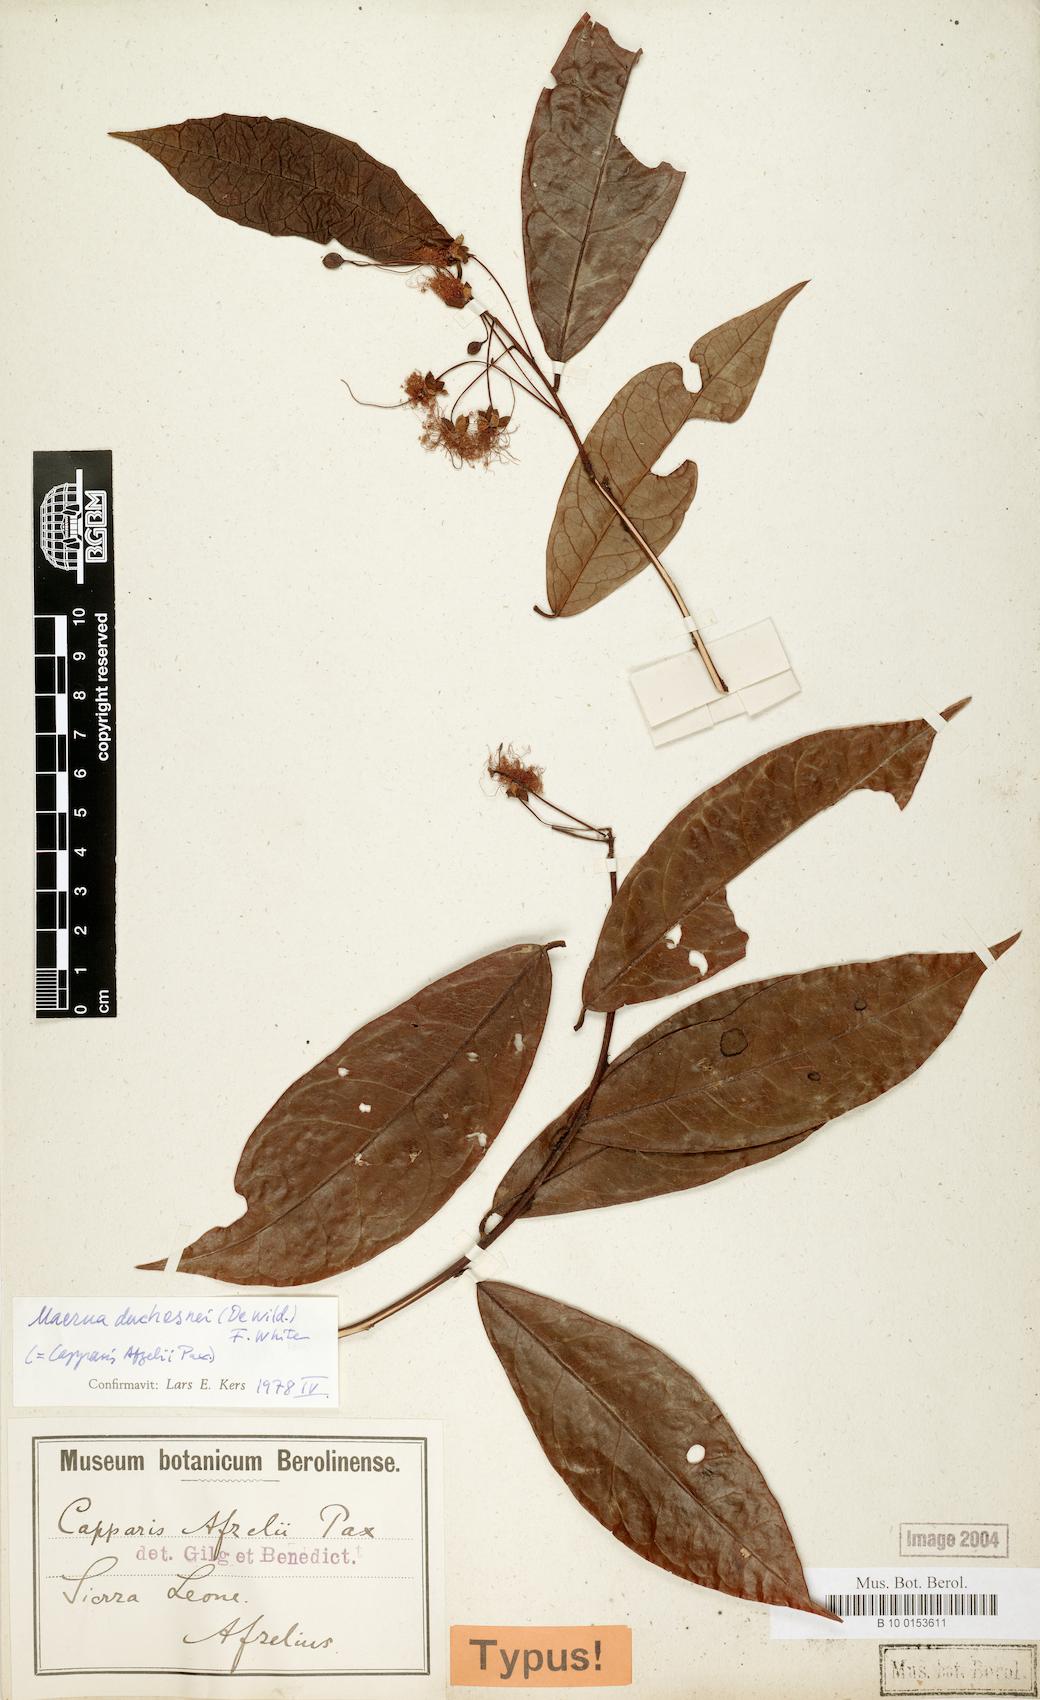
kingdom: Plantae
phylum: Tracheophyta
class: Magnoliopsida
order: Brassicales
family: Capparaceae
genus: Maerua
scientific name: Maerua duchesnei
